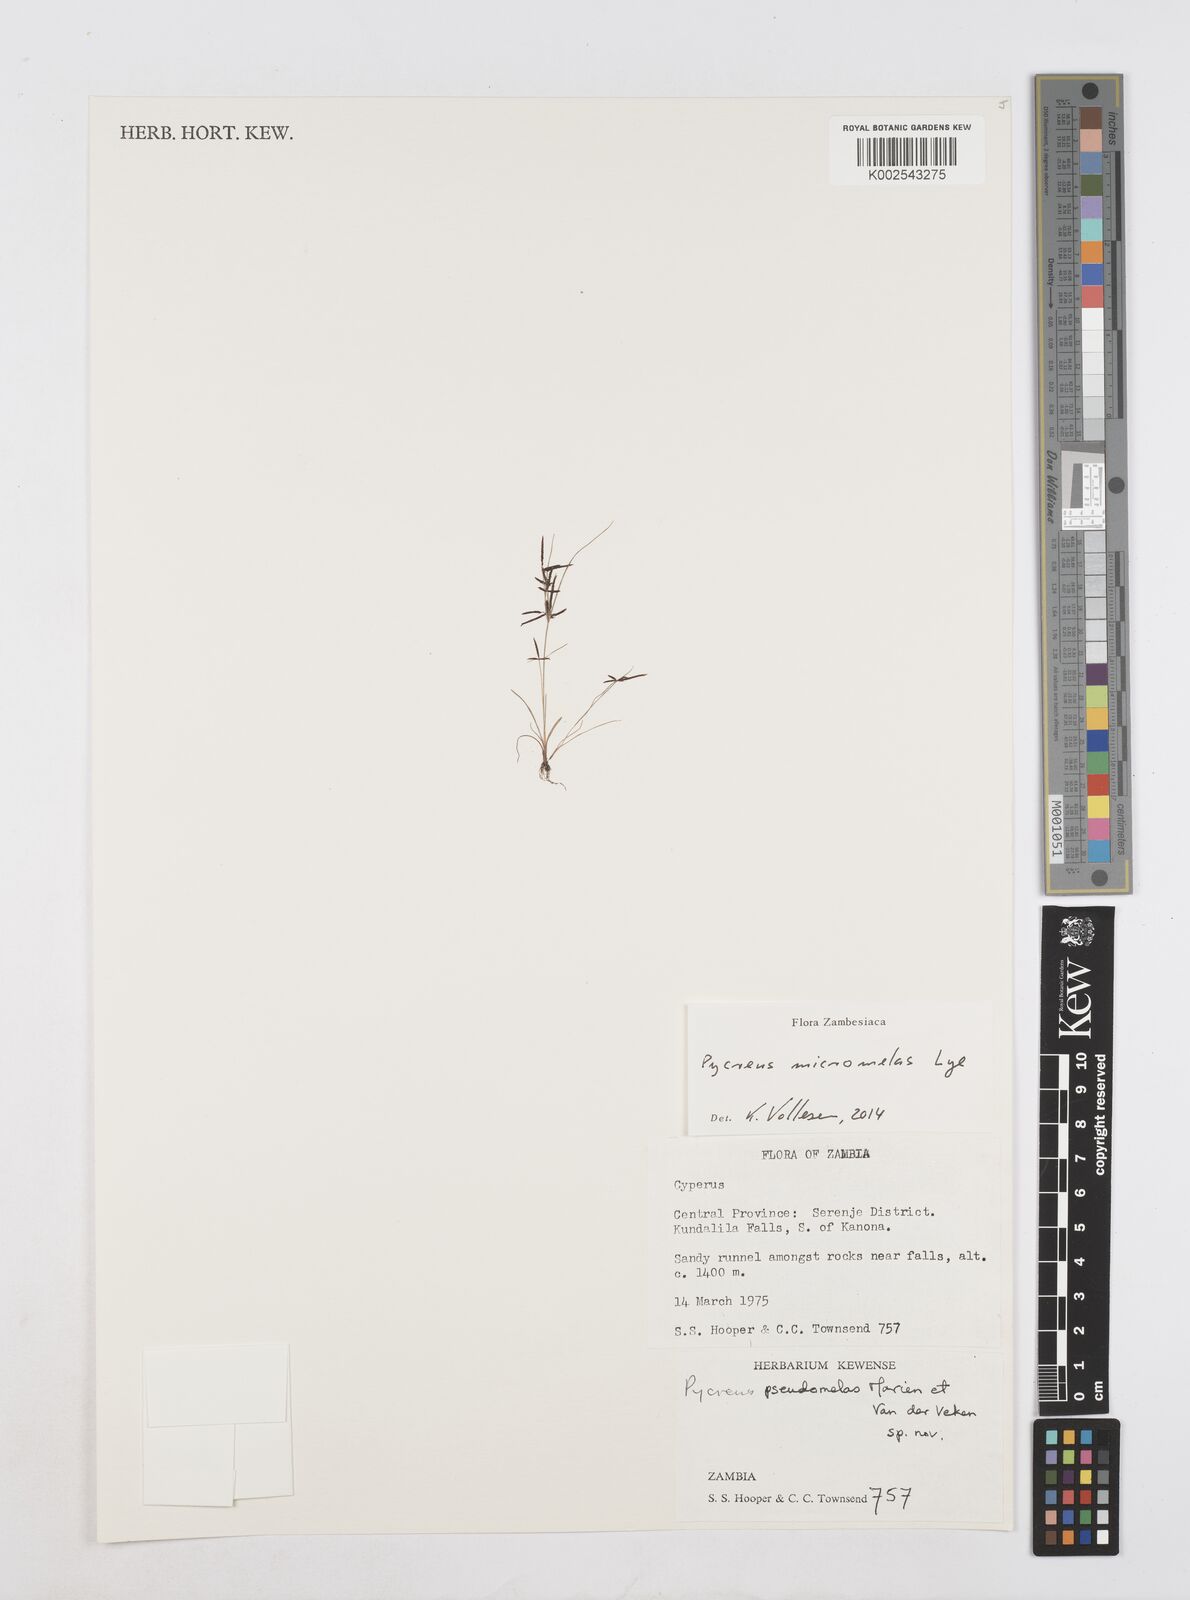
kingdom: Plantae
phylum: Tracheophyta
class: Liliopsida
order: Poales
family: Cyperaceae
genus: Cyperus
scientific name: Cyperus micromelas
